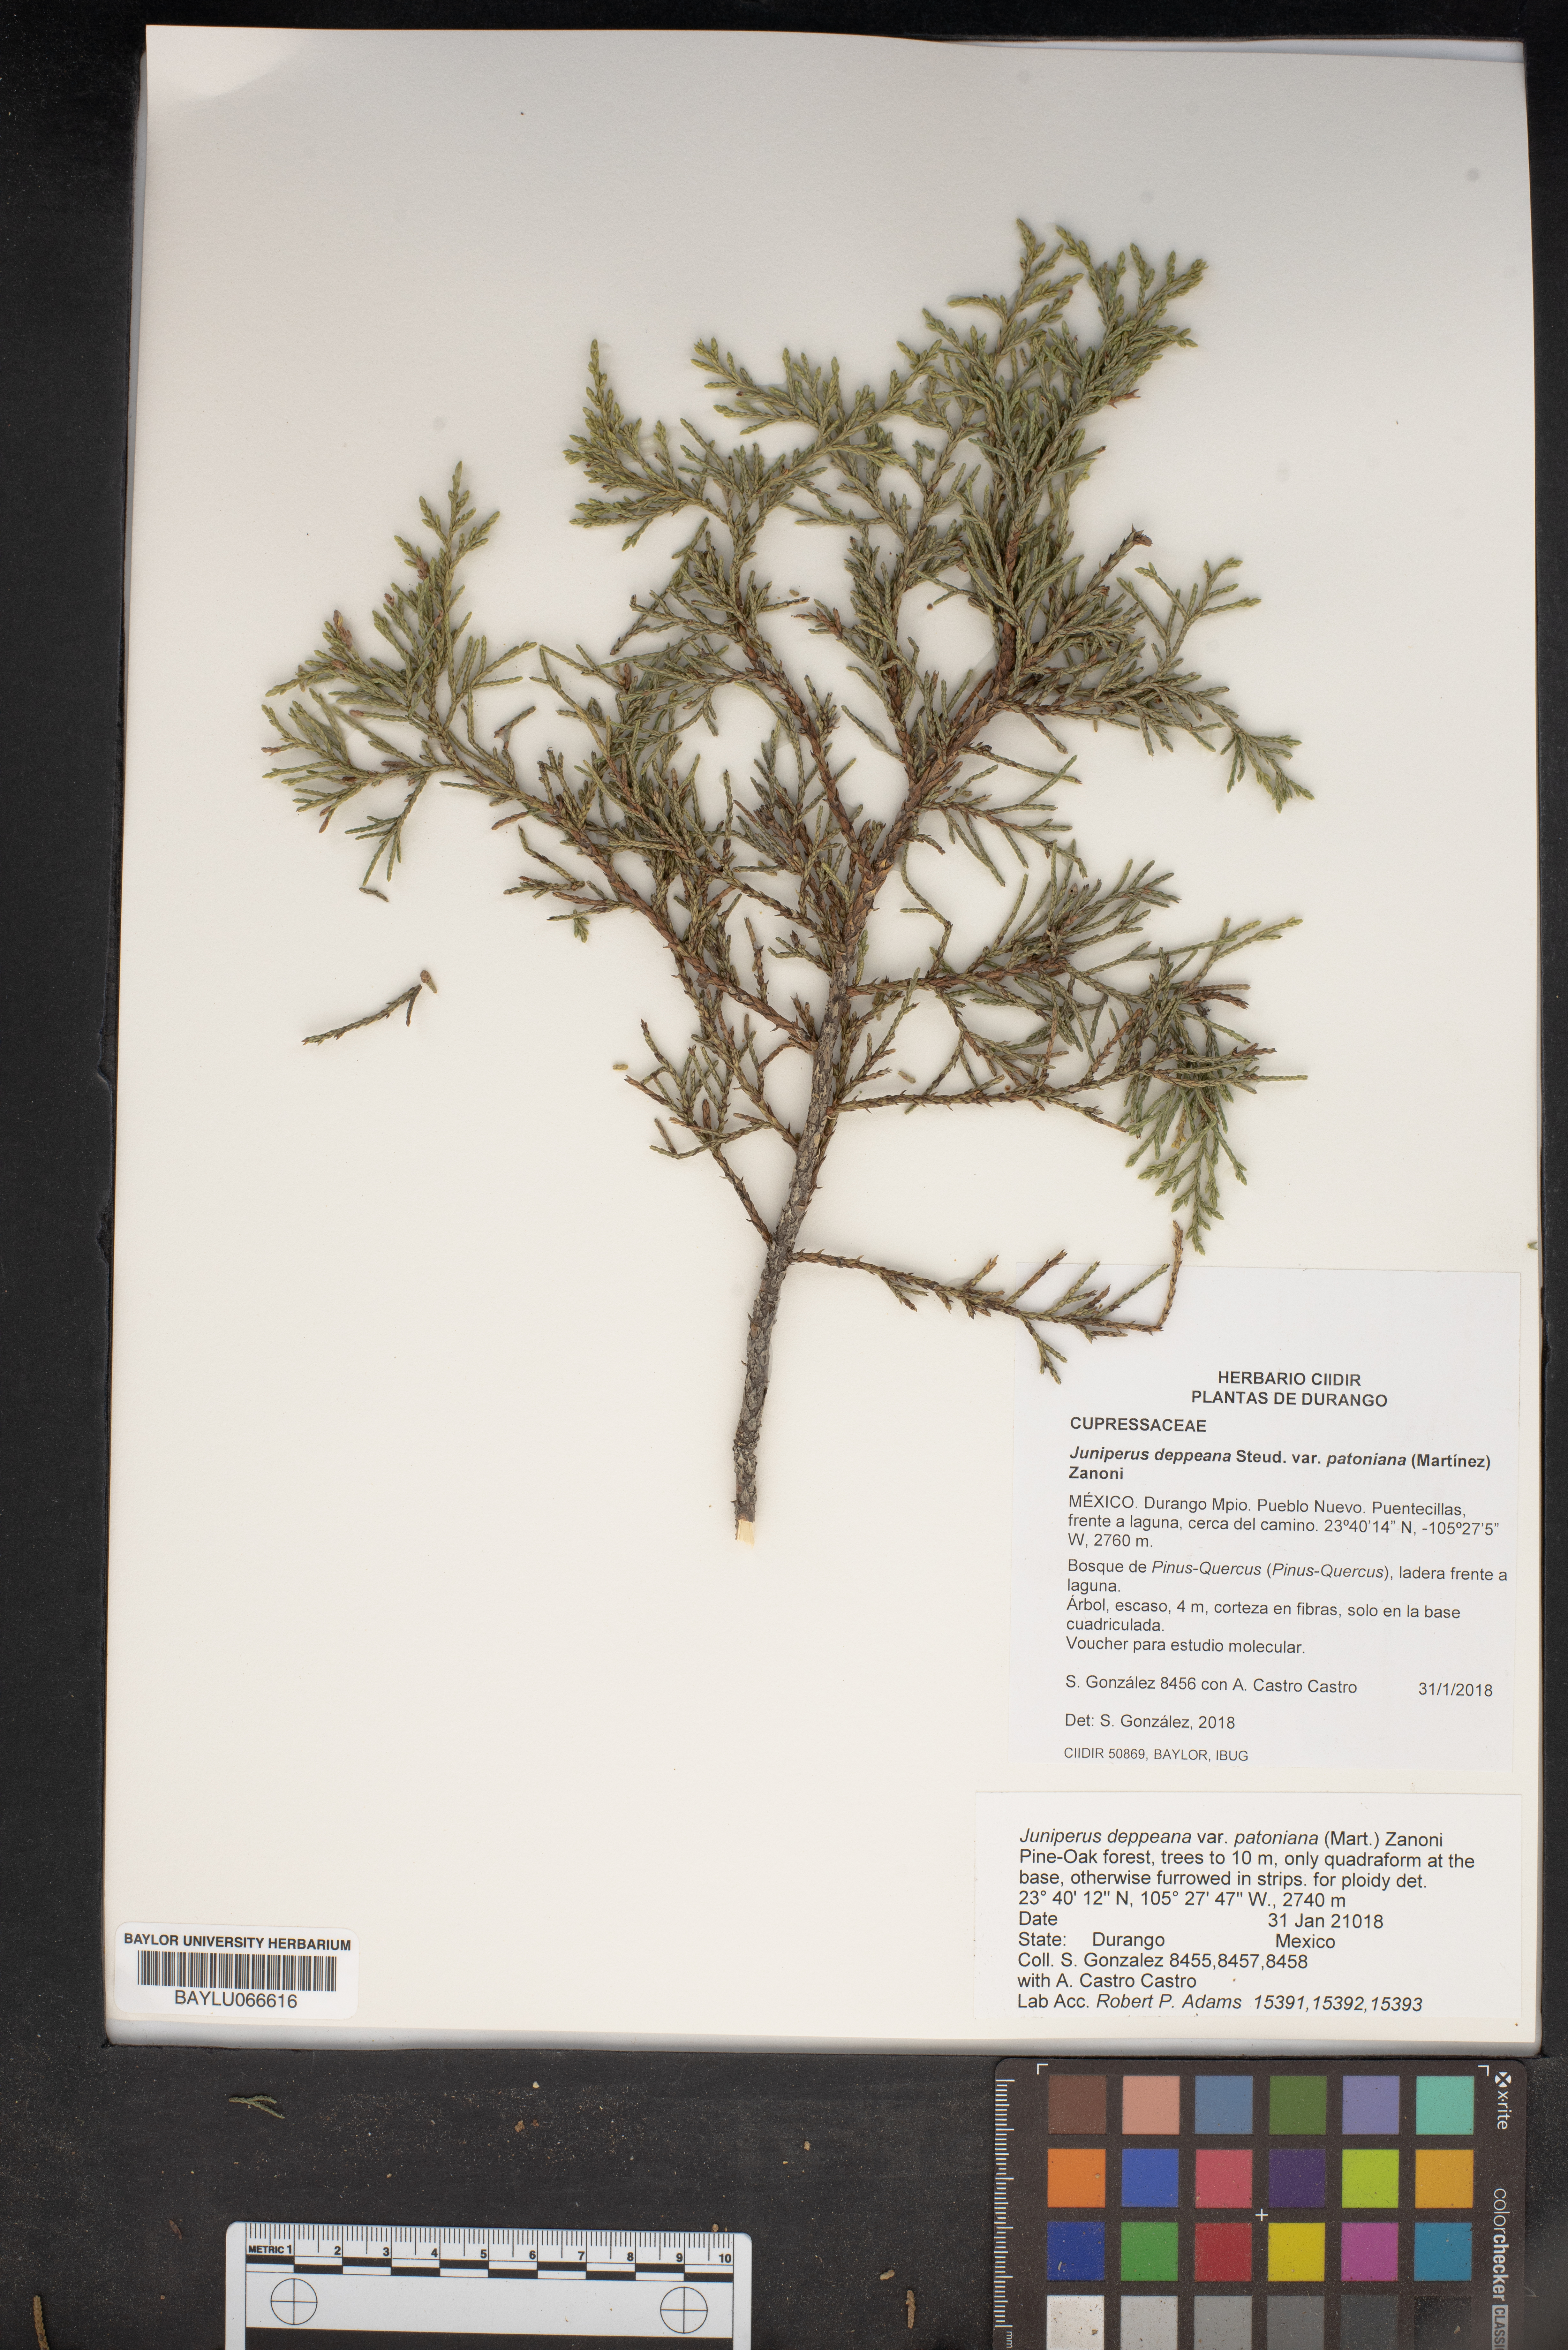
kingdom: Plantae
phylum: Tracheophyta
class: Pinopsida
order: Pinales
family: Cupressaceae
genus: Juniperus
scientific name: Juniperus deppeana
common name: Alligator juniper
